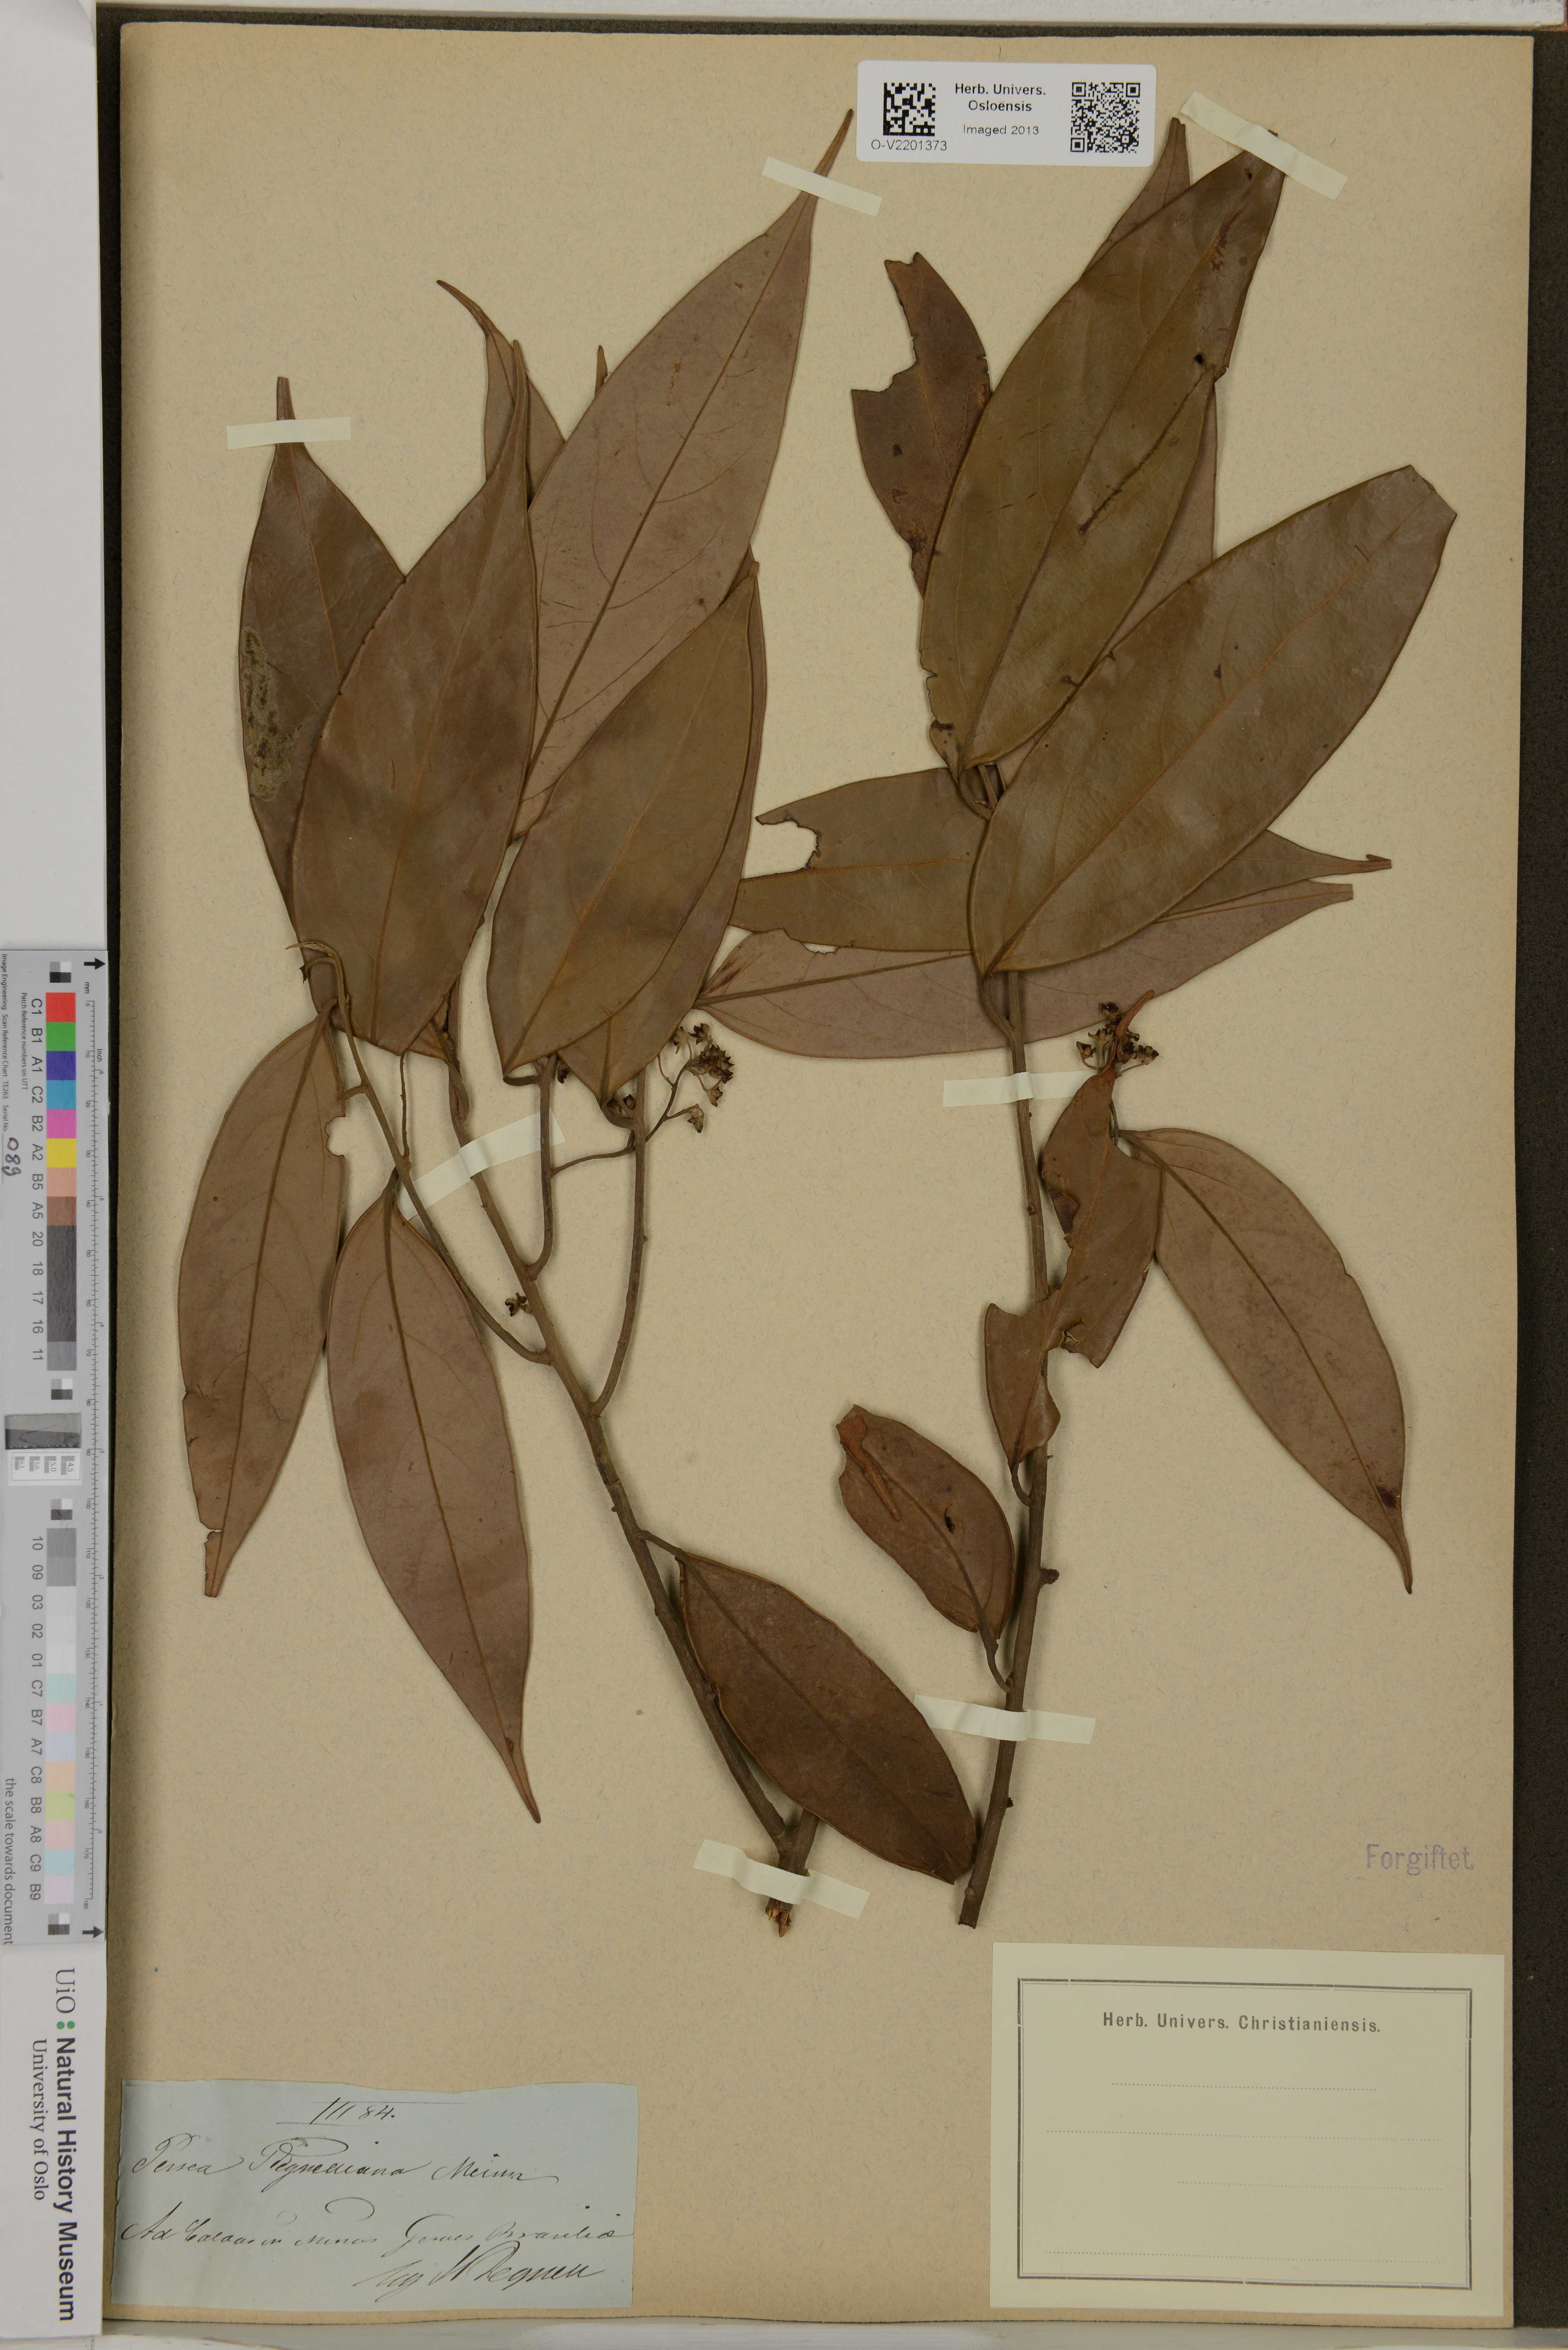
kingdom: Plantae
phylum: Tracheophyta
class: Magnoliopsida
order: Laurales
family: Lauraceae
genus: Persea
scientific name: Persea peruviana
